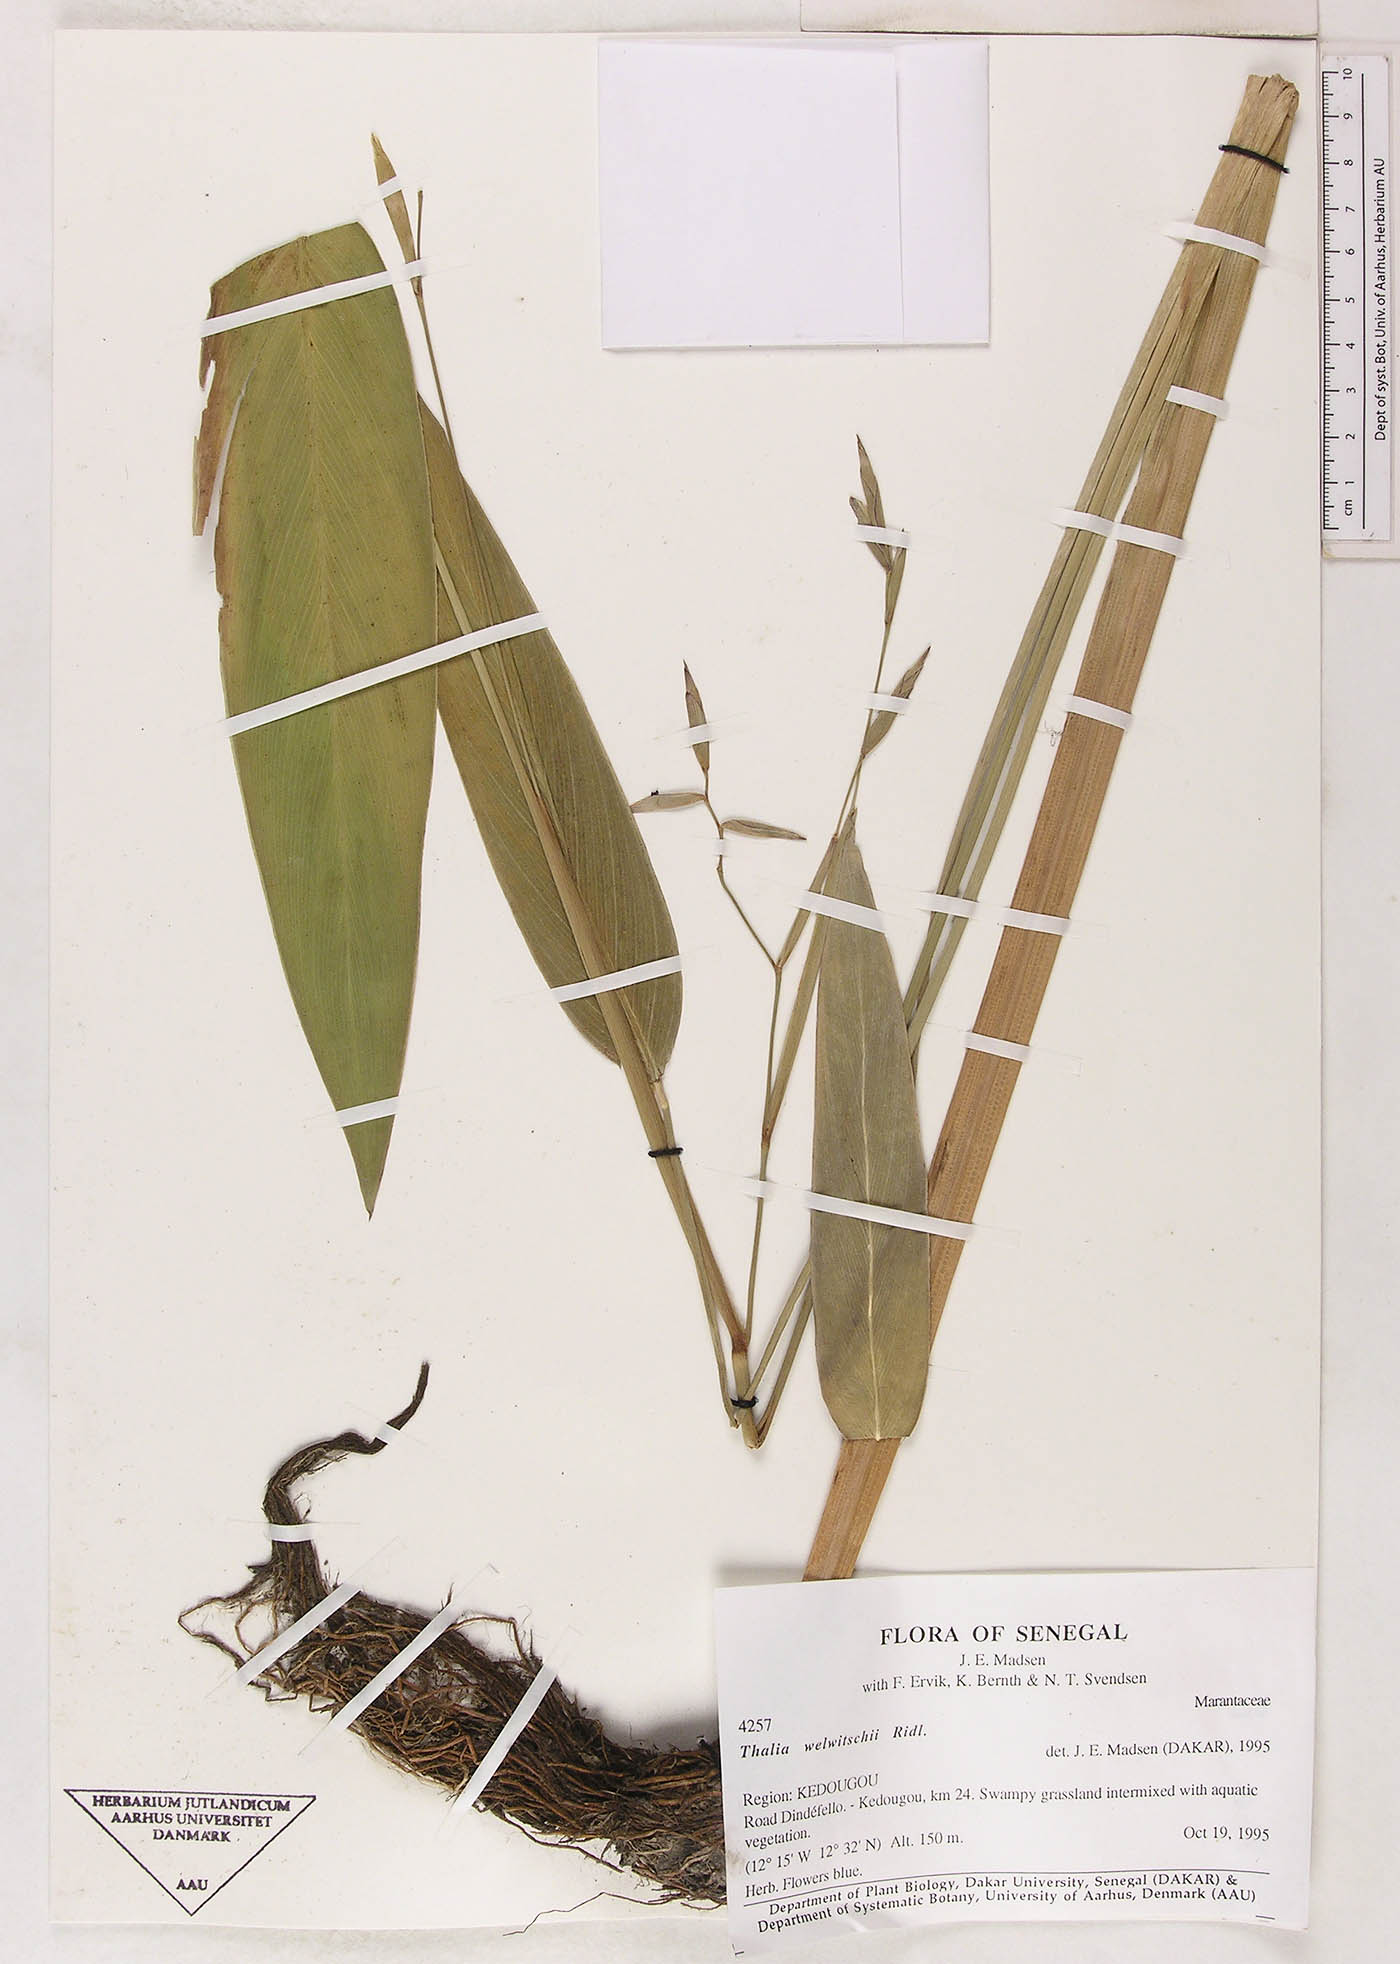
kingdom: Plantae
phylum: Tracheophyta
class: Magnoliopsida
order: Caryophyllales
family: Amaranthaceae
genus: Achyranthes
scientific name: Achyranthes
